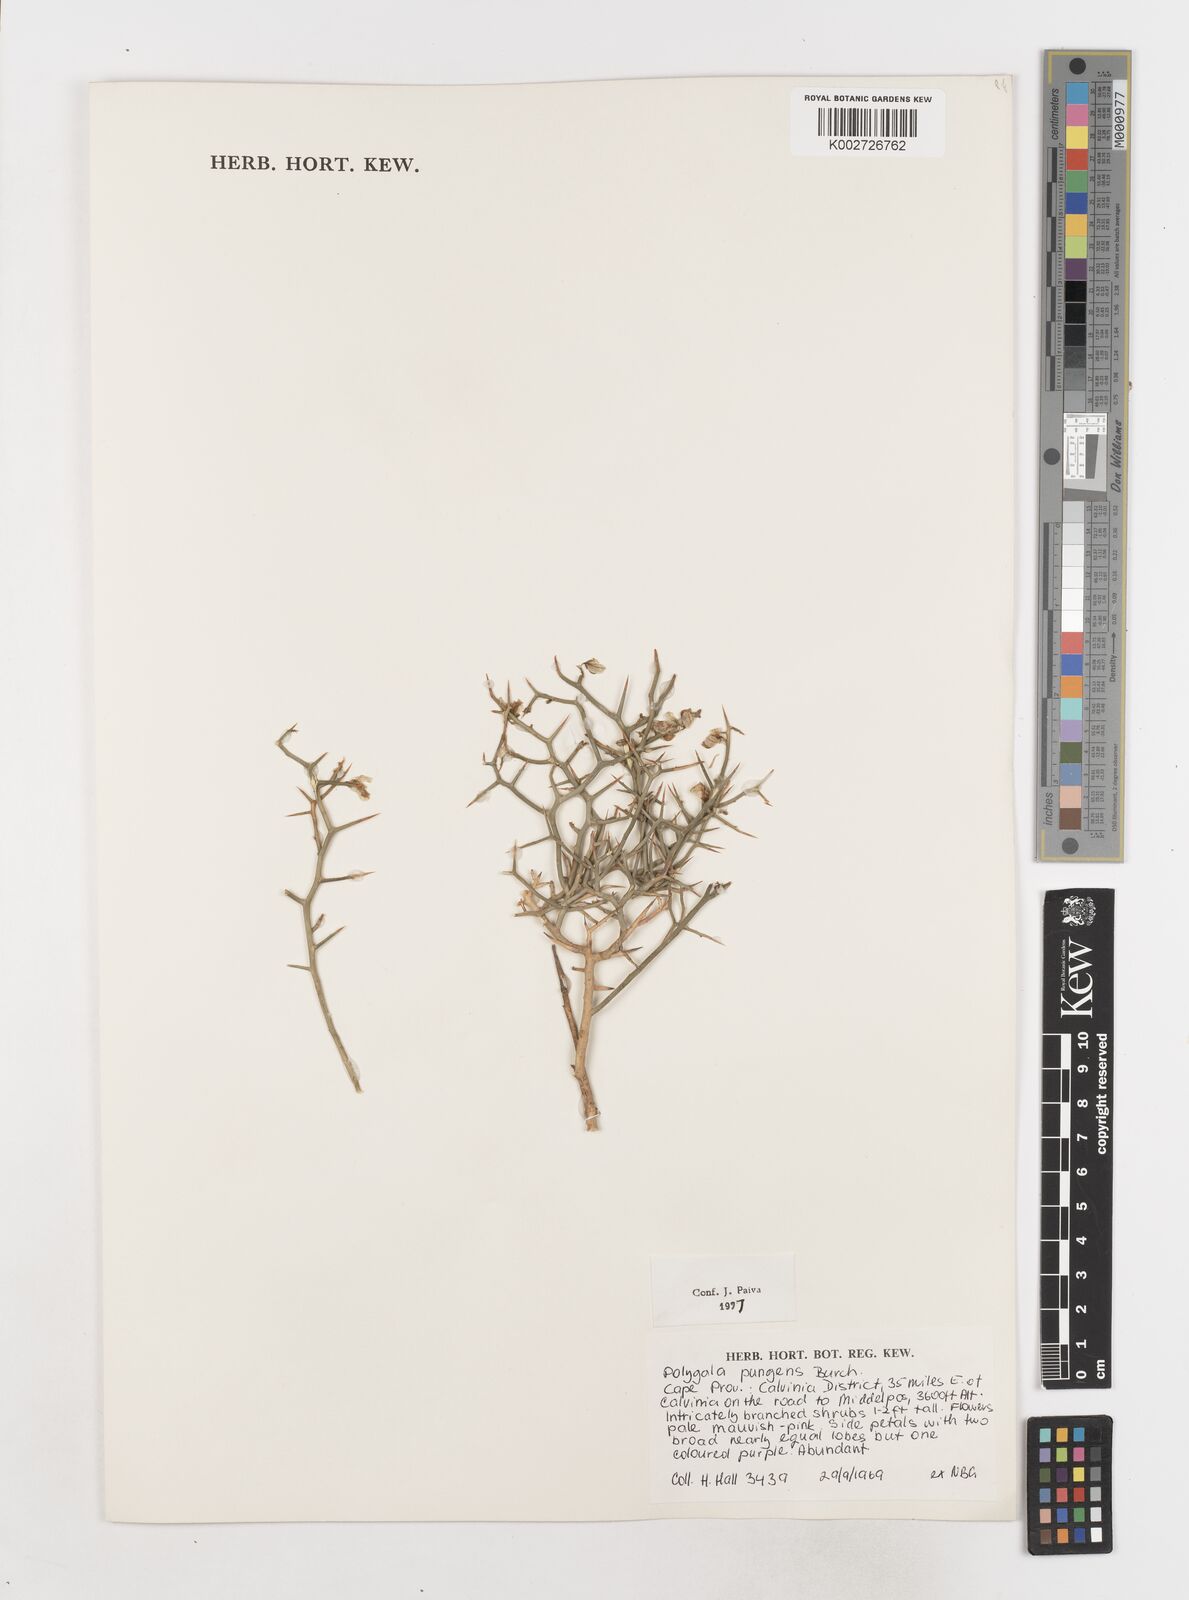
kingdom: Plantae
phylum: Tracheophyta
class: Magnoliopsida
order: Fabales
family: Polygalaceae
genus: Polygala
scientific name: Polygala pungens
